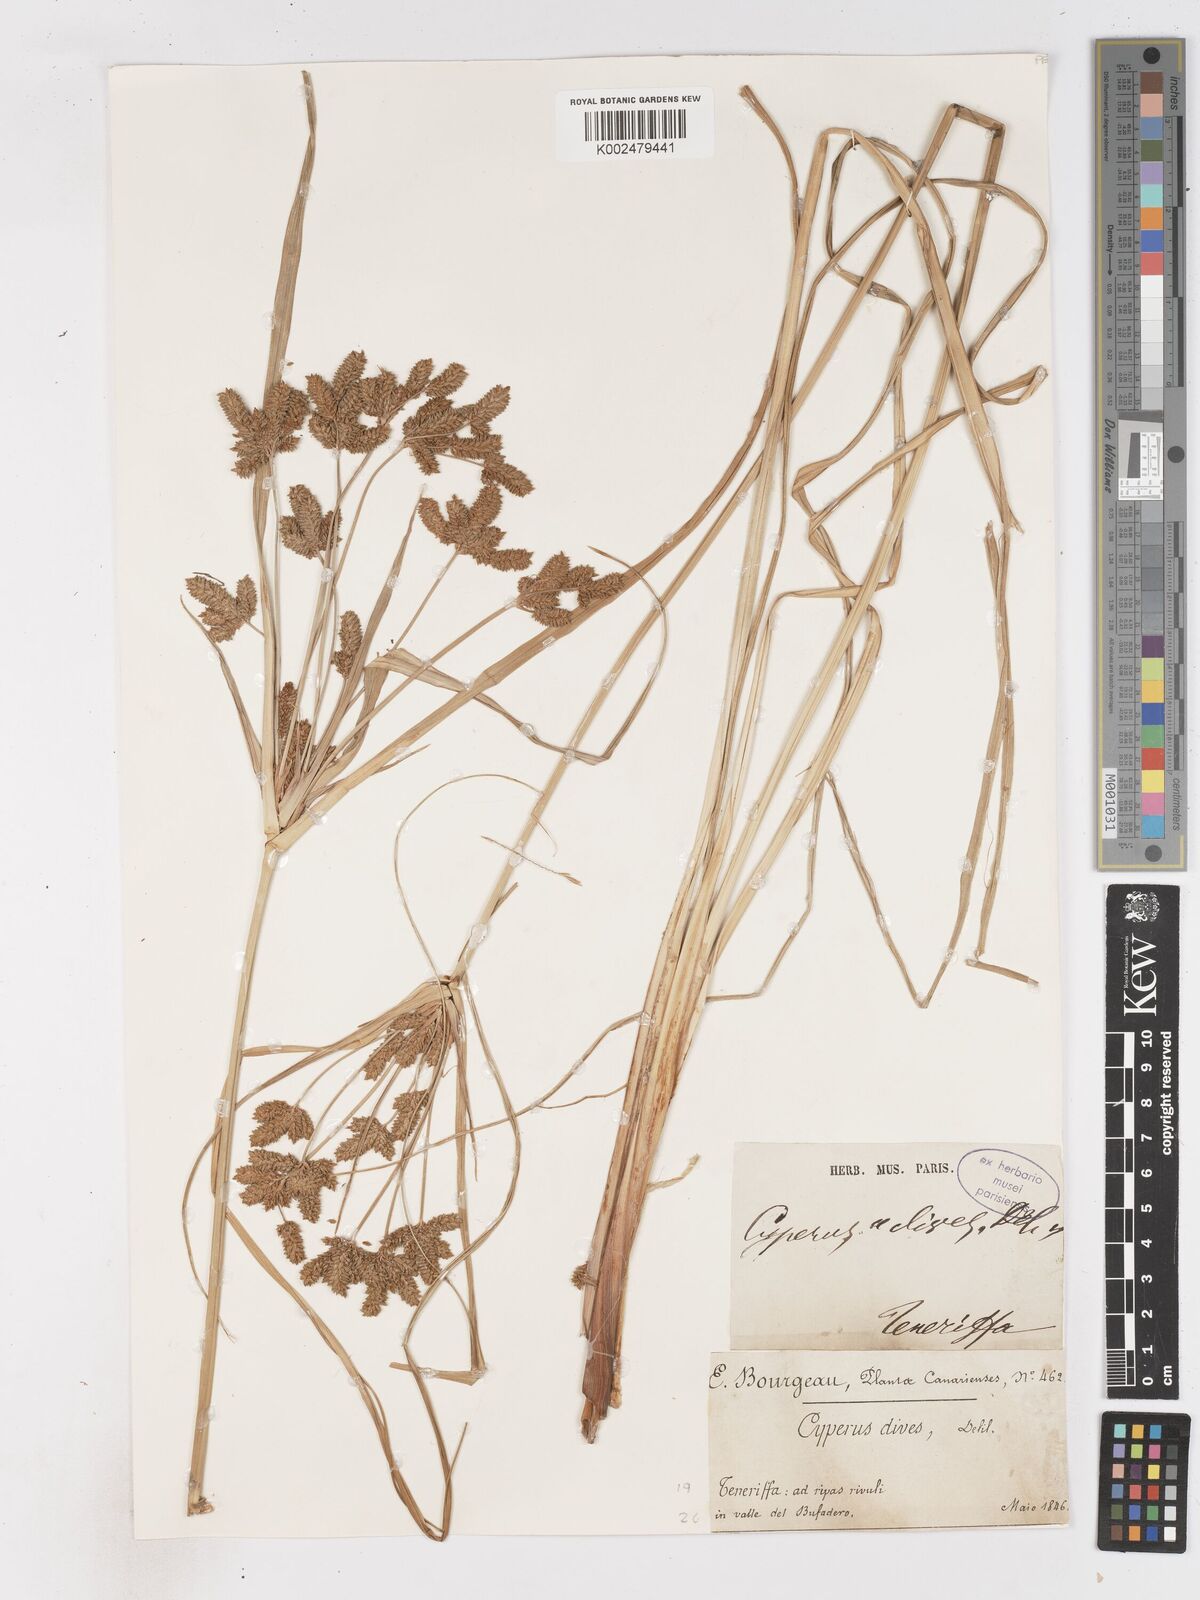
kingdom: Plantae
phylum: Tracheophyta
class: Liliopsida
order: Poales
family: Cyperaceae
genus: Cyperus
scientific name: Cyperus dives
